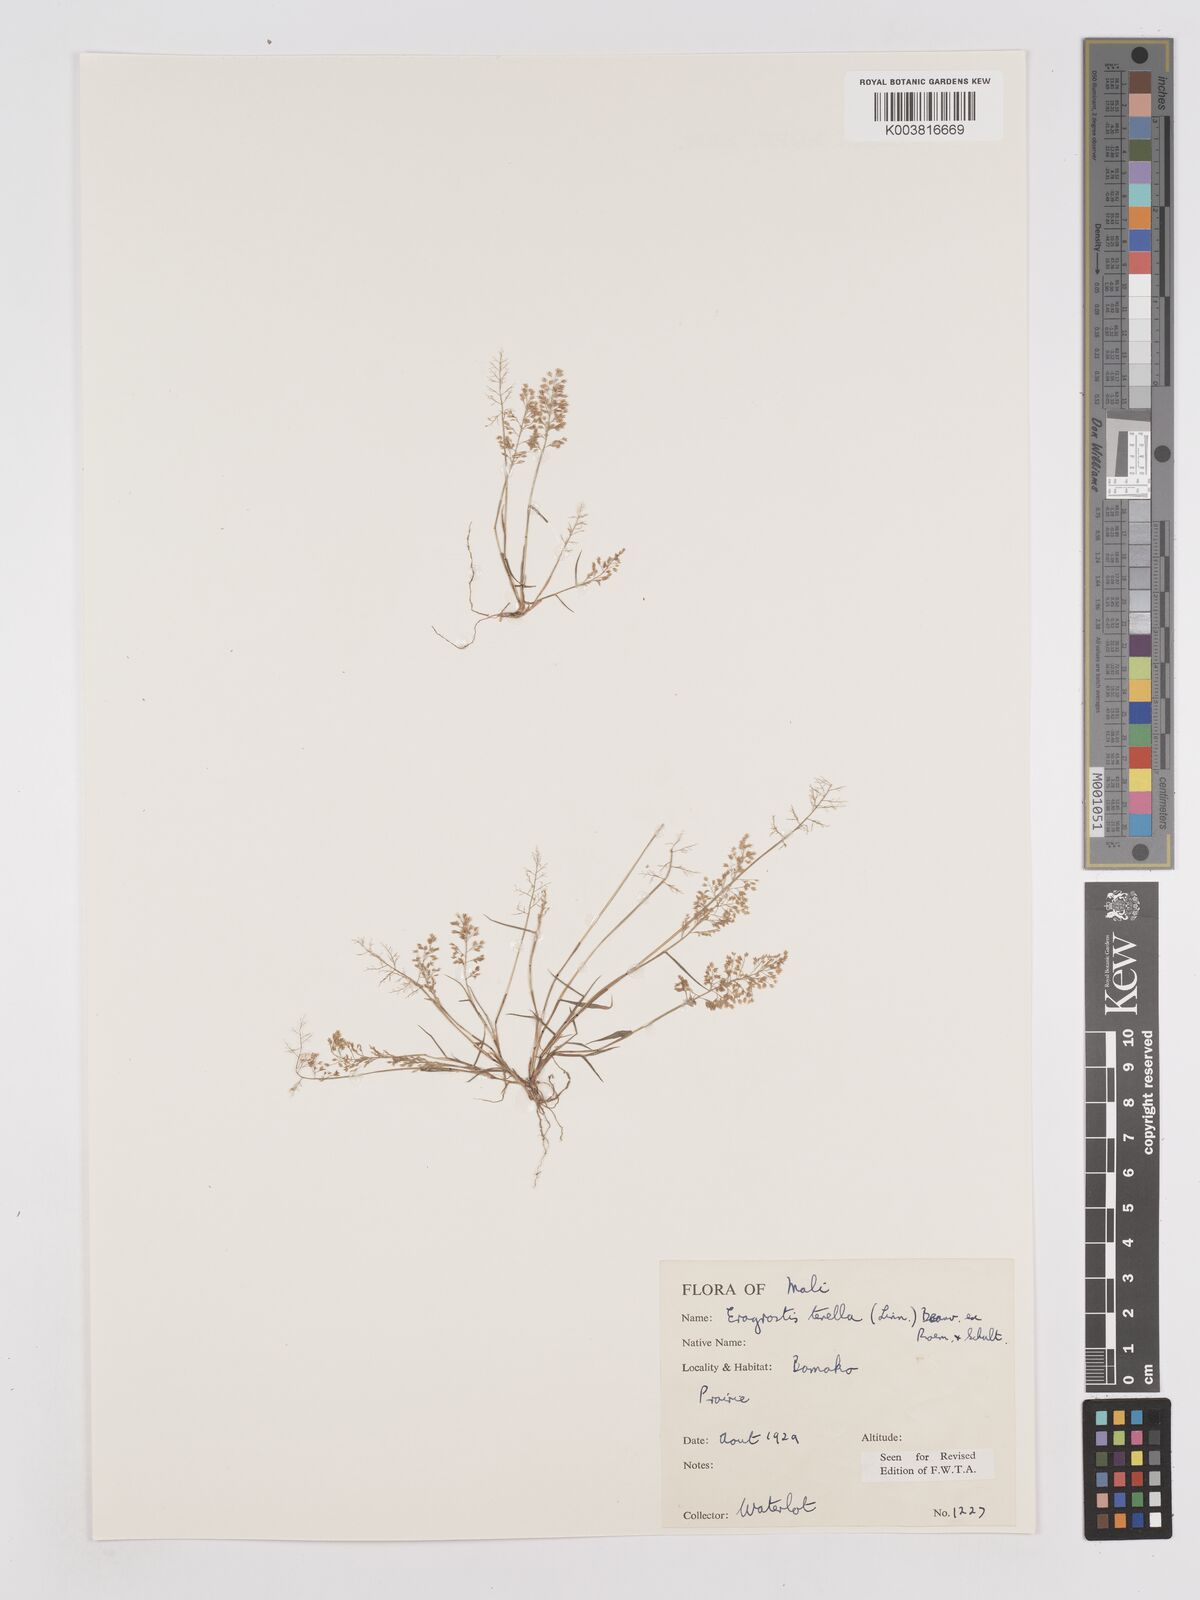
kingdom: Plantae
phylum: Tracheophyta
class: Liliopsida
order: Poales
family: Poaceae
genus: Eragrostis
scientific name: Eragrostis tenella
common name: Japanese lovegrass
